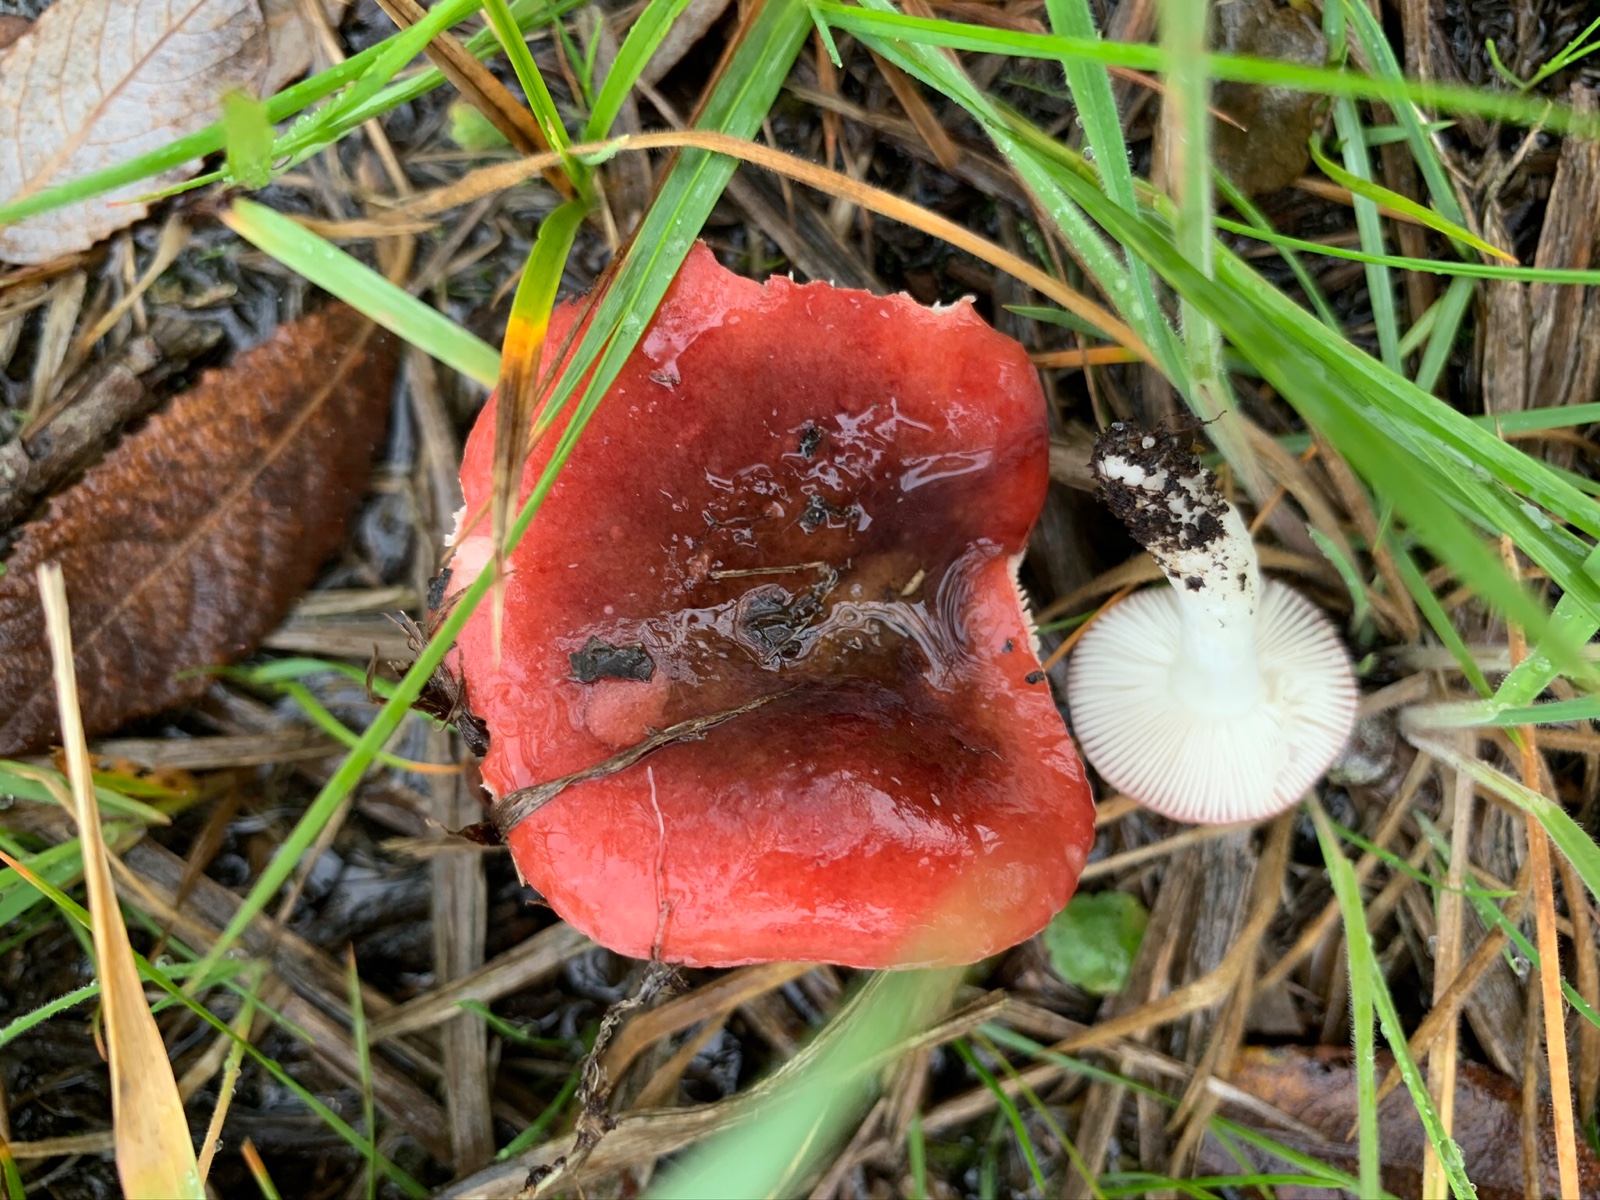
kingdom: Fungi
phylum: Basidiomycota
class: Agaricomycetes
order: Russulales
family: Russulaceae
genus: Russula
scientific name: Russula laccata
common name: klit-skørhat
